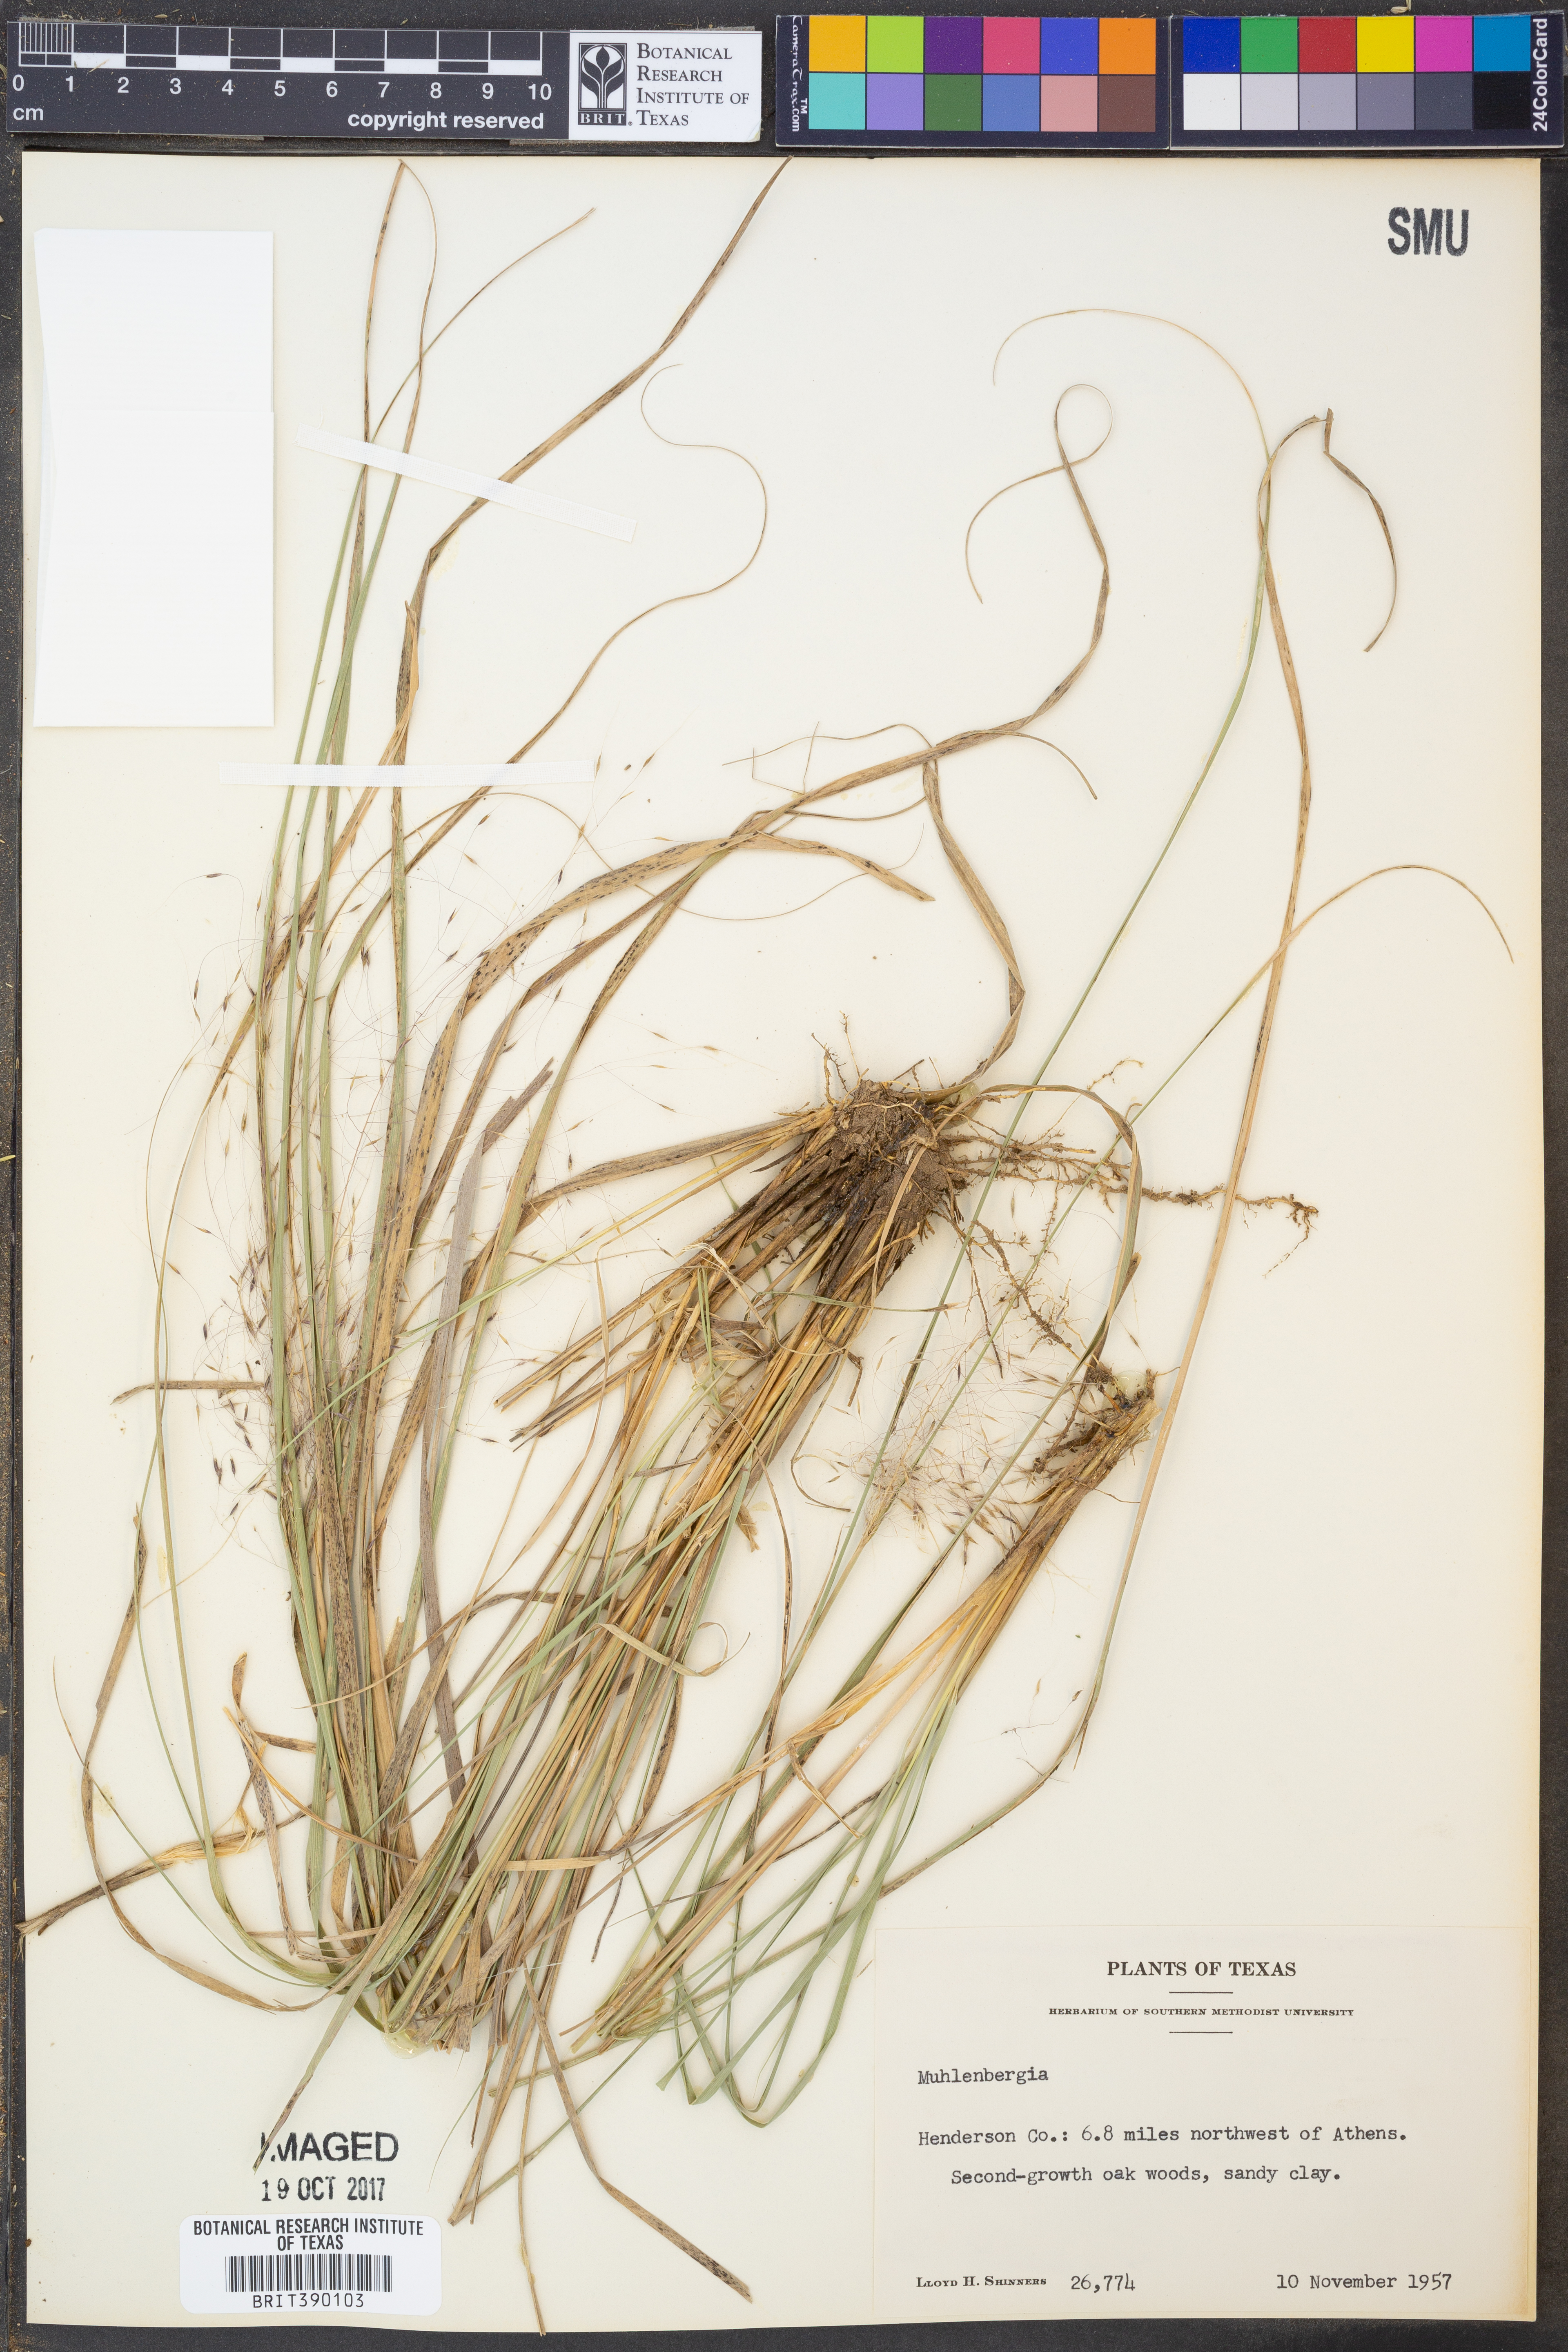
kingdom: Plantae
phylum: Tracheophyta
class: Liliopsida
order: Poales
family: Poaceae
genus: Muhlenbergia
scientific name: Muhlenbergia
